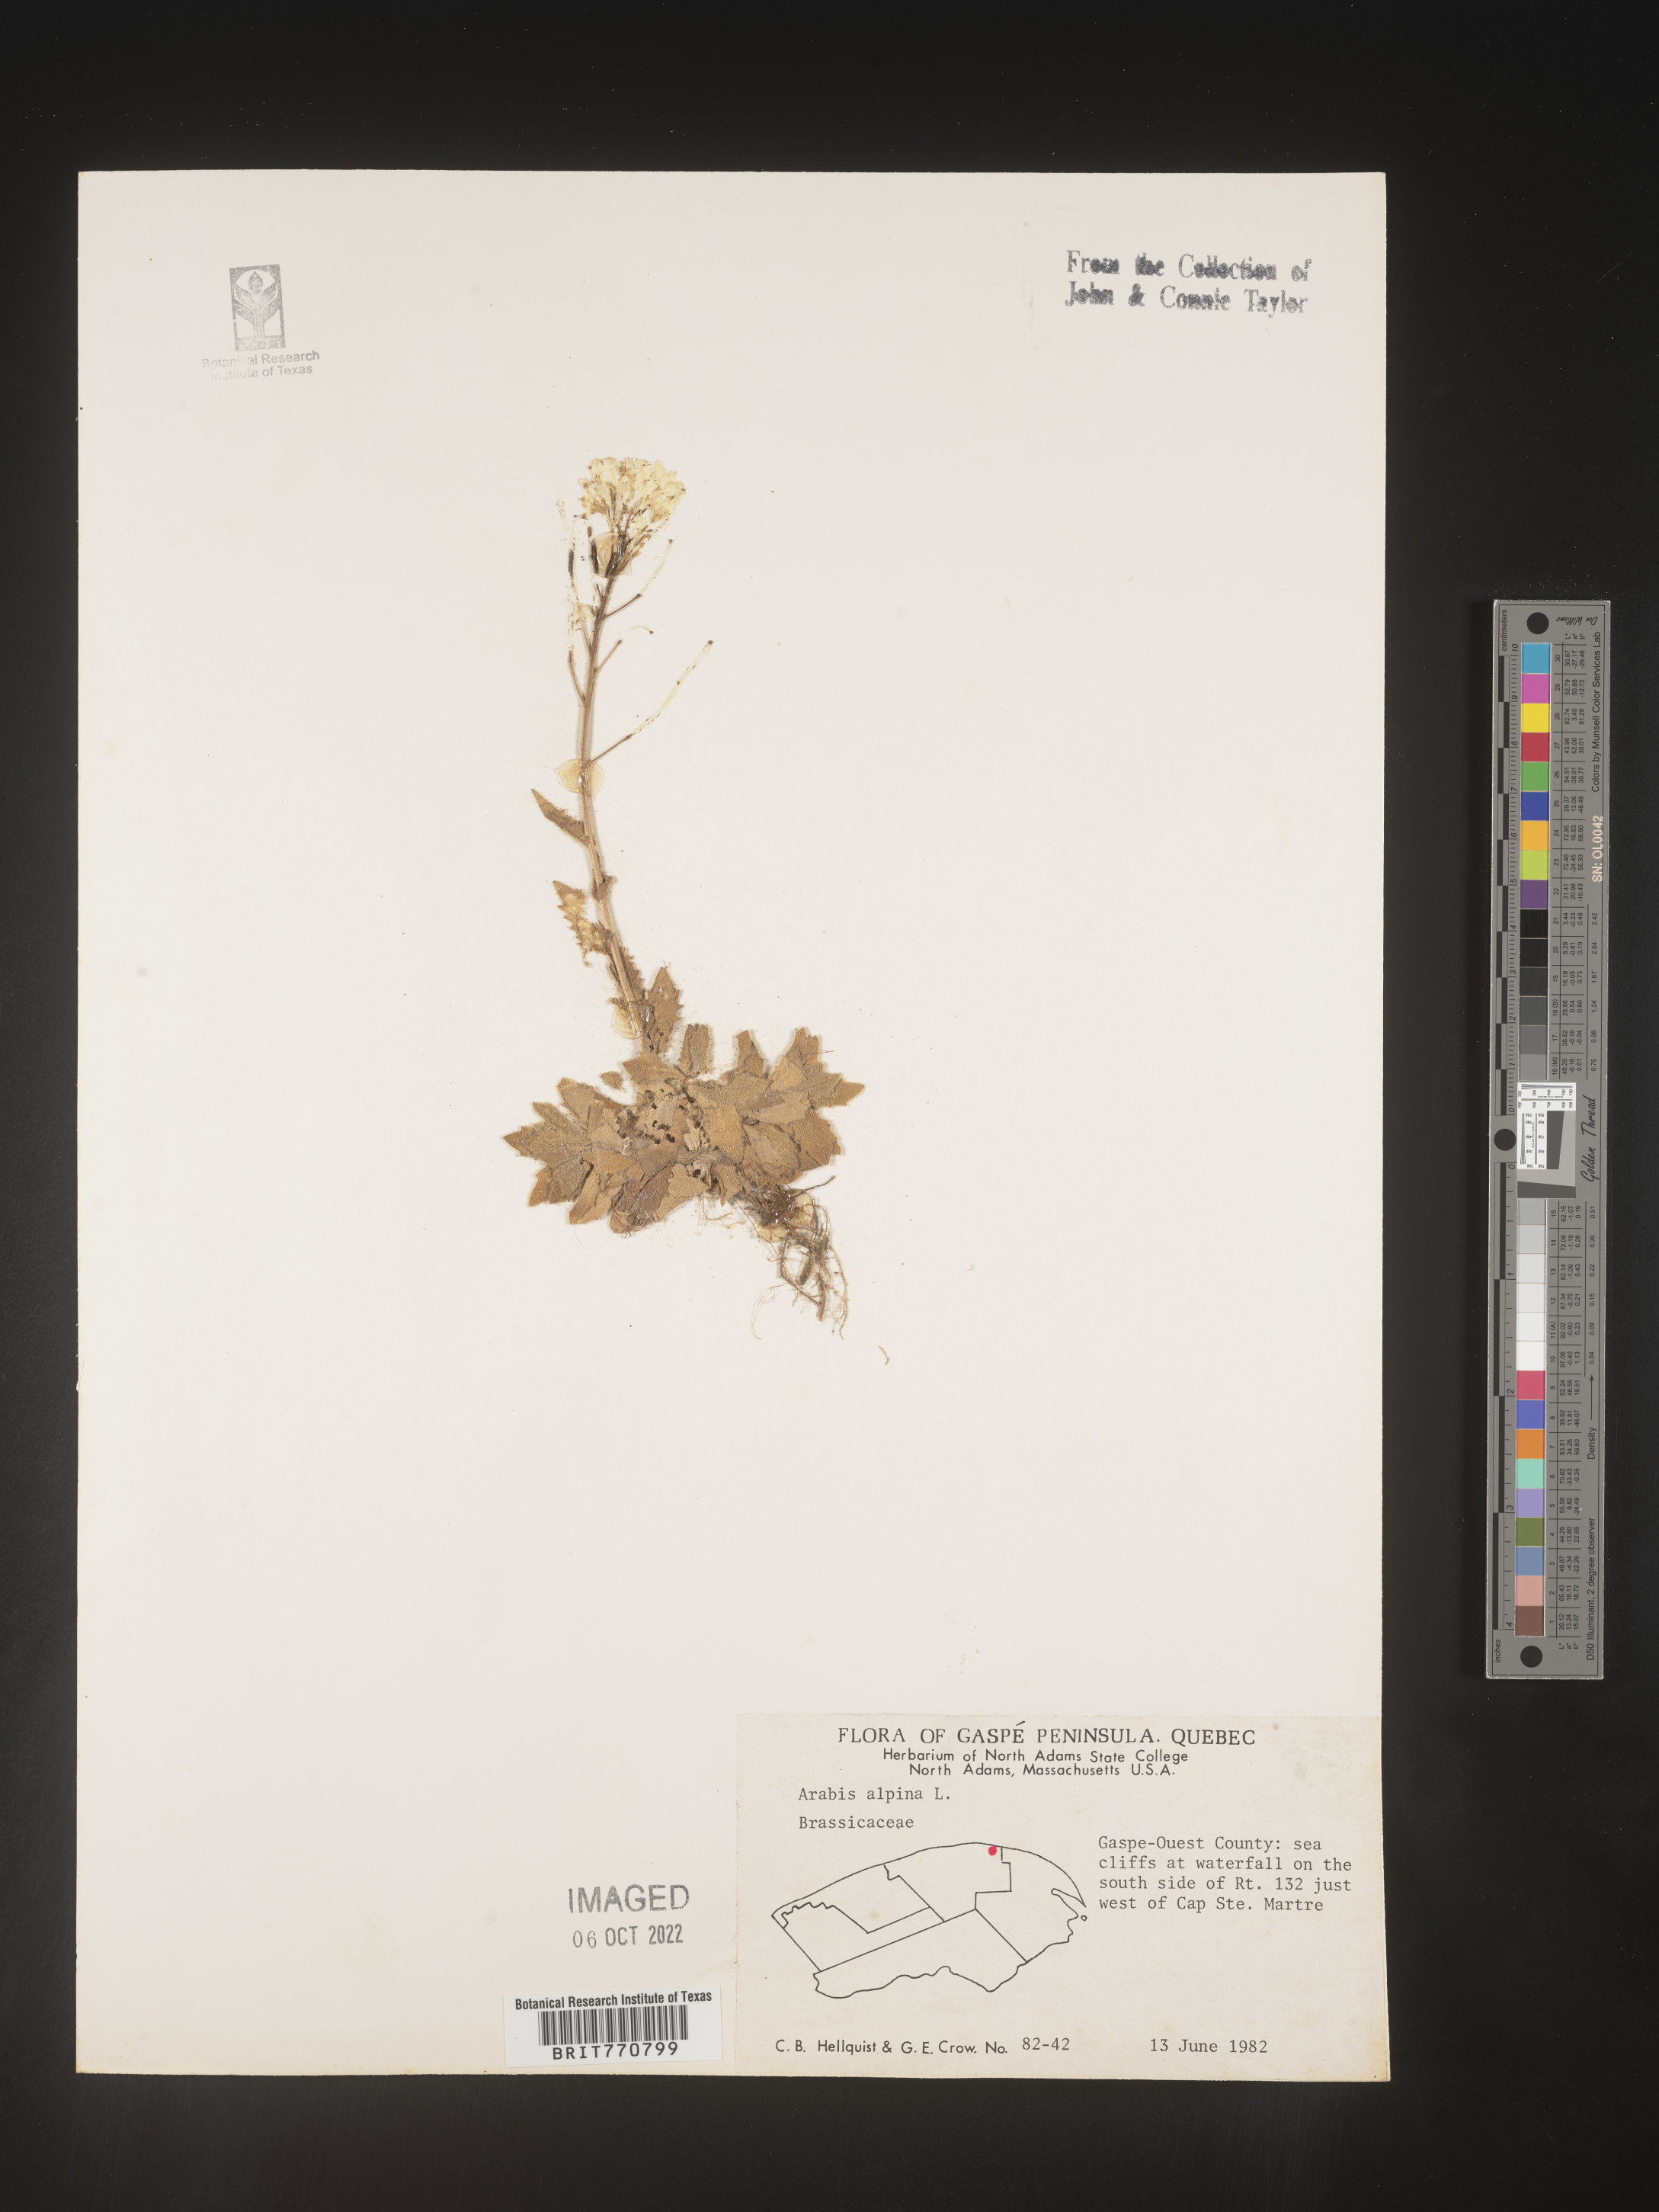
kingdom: Plantae
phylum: Tracheophyta
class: Magnoliopsida
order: Brassicales
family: Brassicaceae
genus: Arabis
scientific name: Arabis
